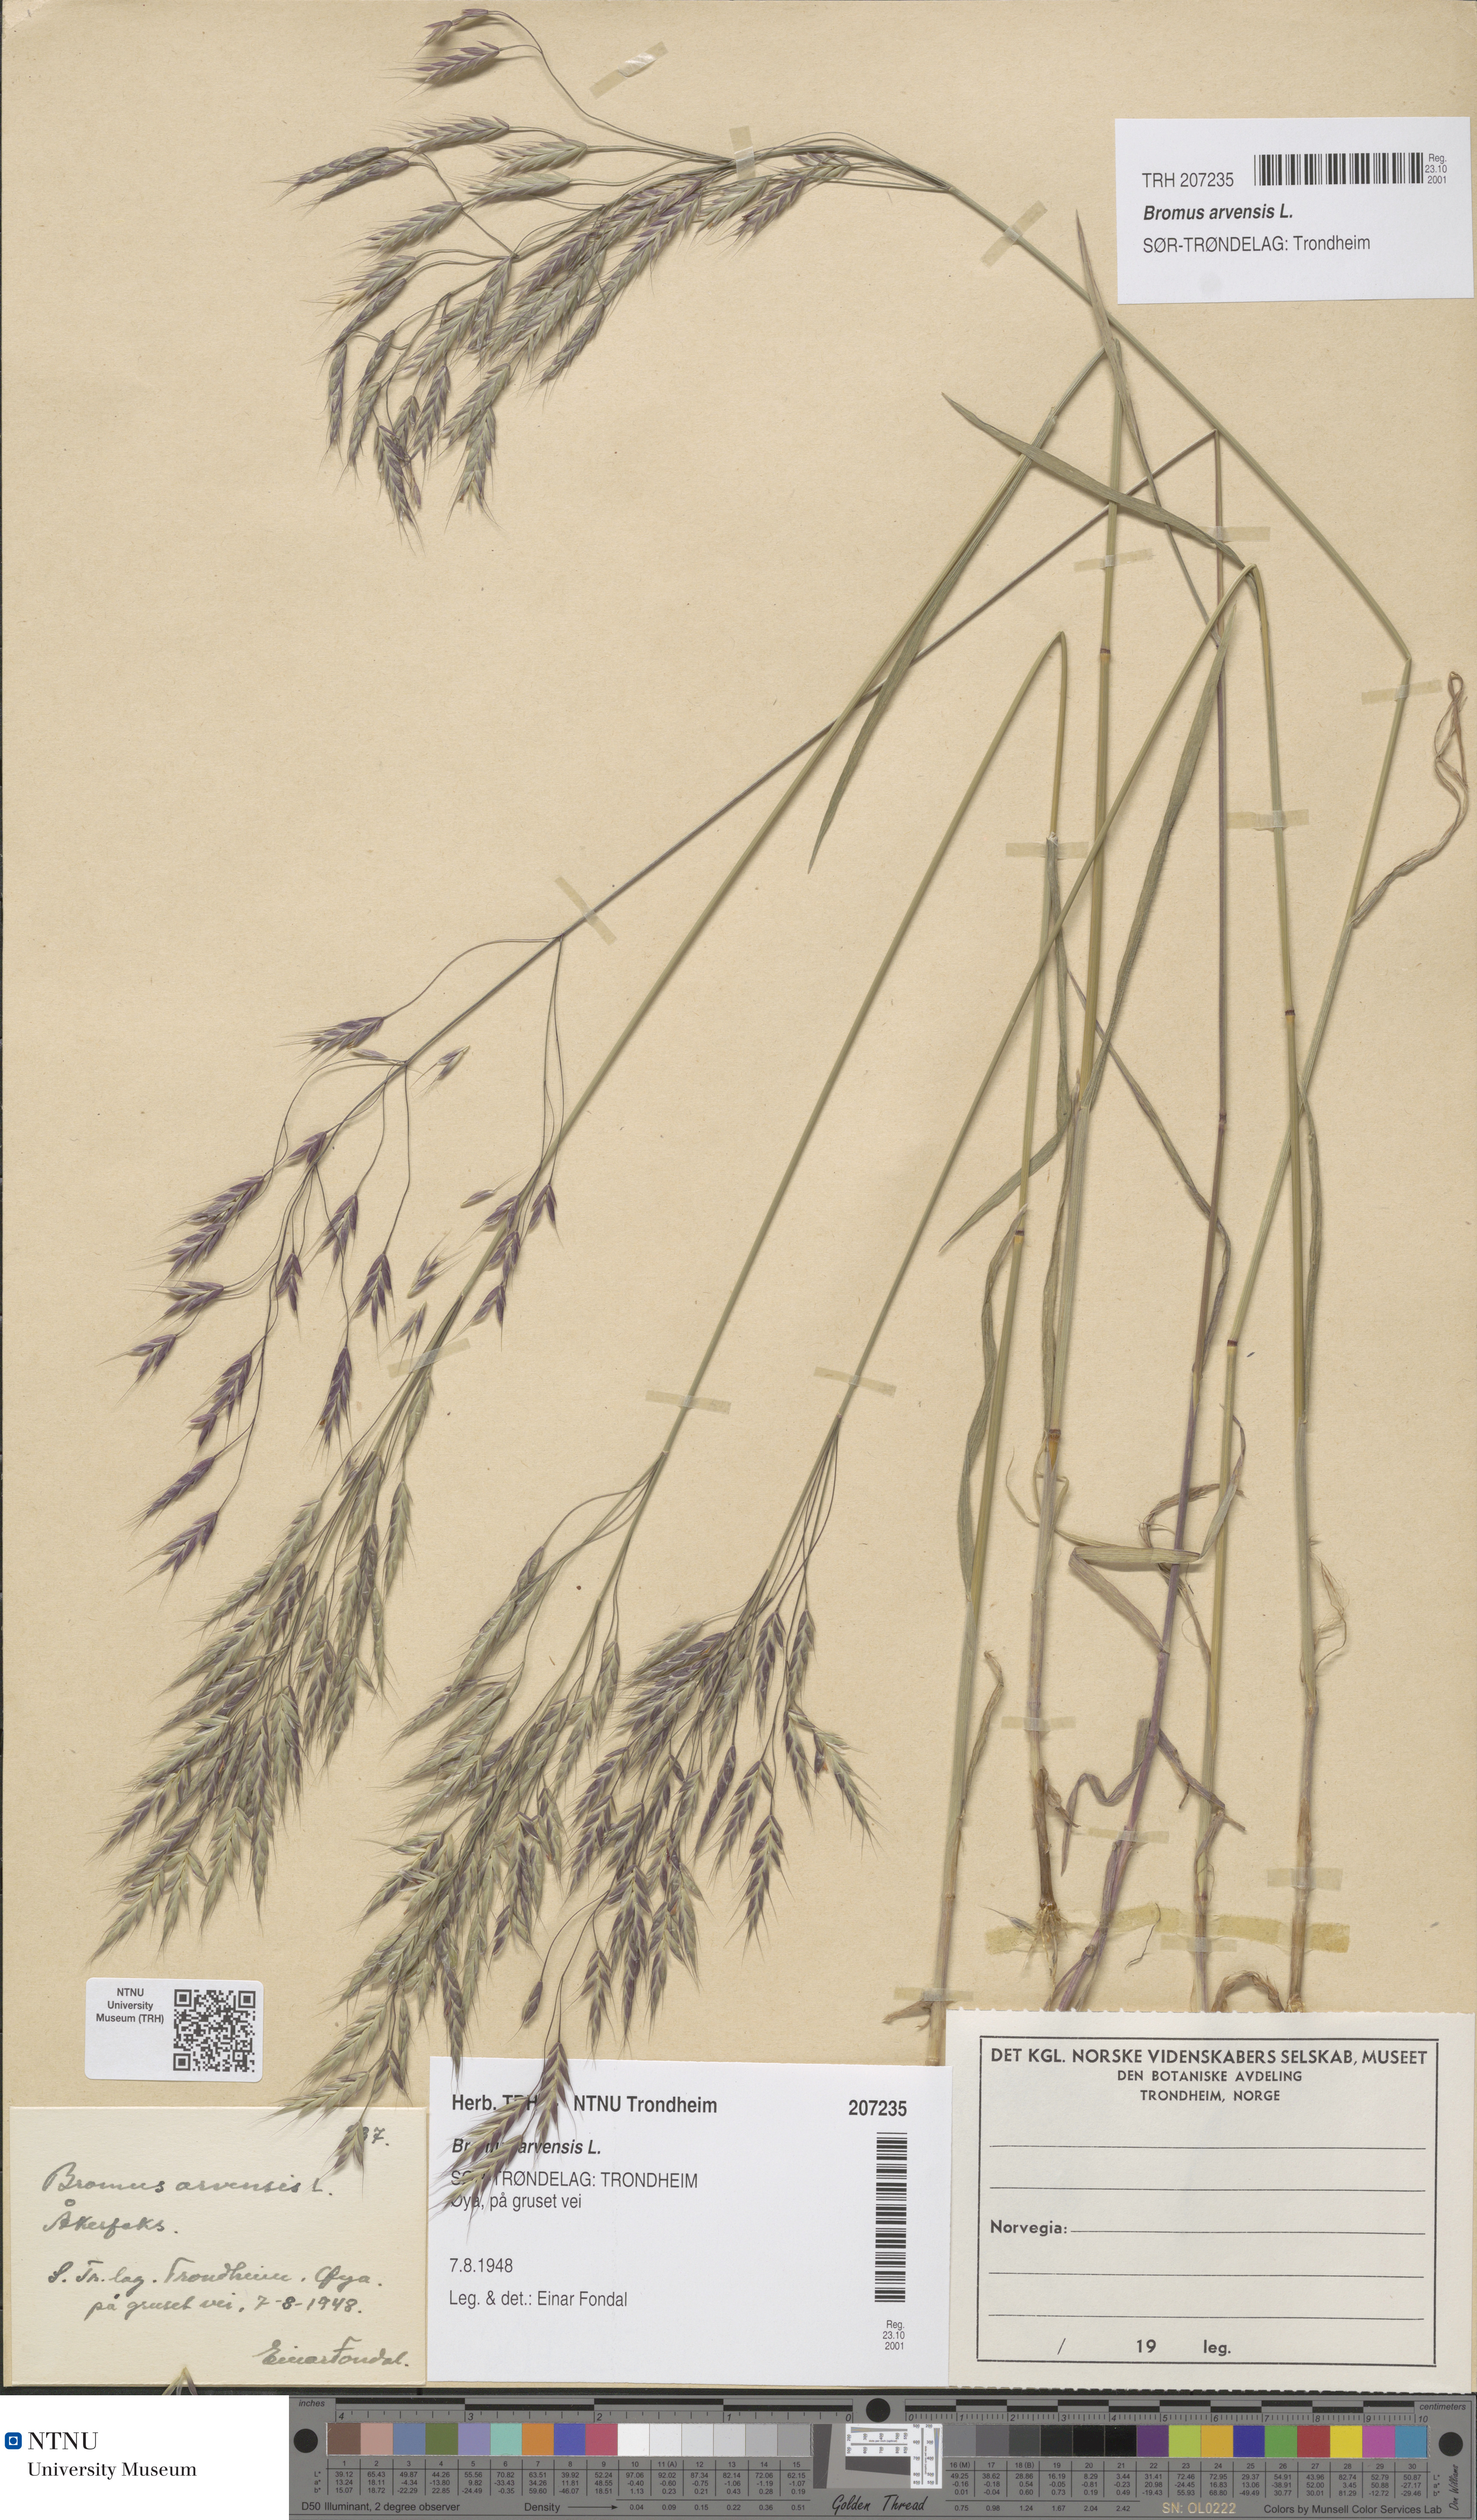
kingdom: Plantae
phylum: Tracheophyta
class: Liliopsida
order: Poales
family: Poaceae
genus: Bromus
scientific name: Bromus arvensis
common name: Field brome
